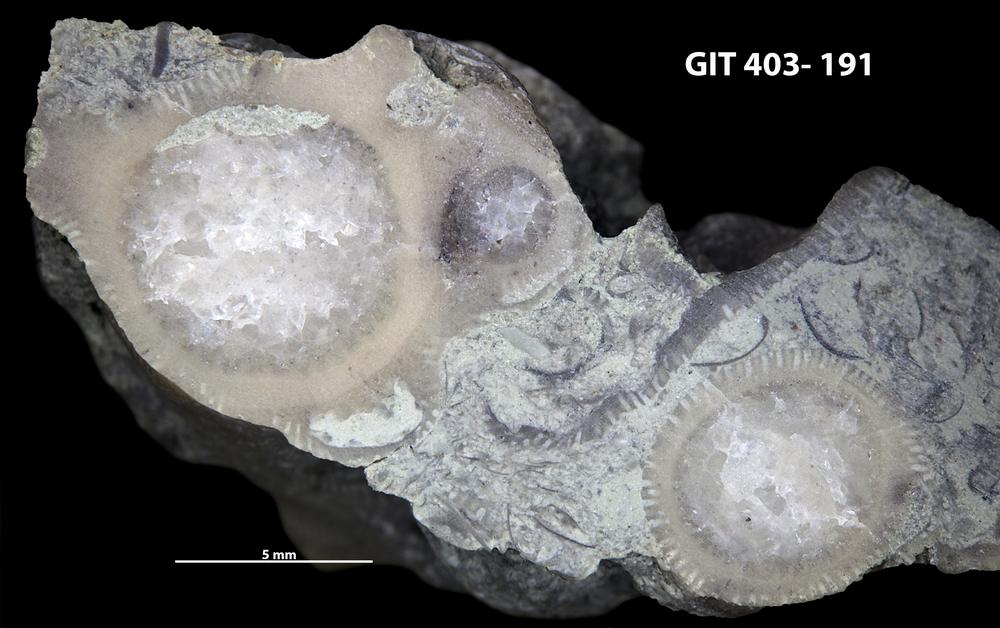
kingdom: Animalia
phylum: Bryozoa
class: Stenolaemata
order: Cystoporida
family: Fistuliporidae
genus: Fistulipora
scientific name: Fistulipora przhidolensis
